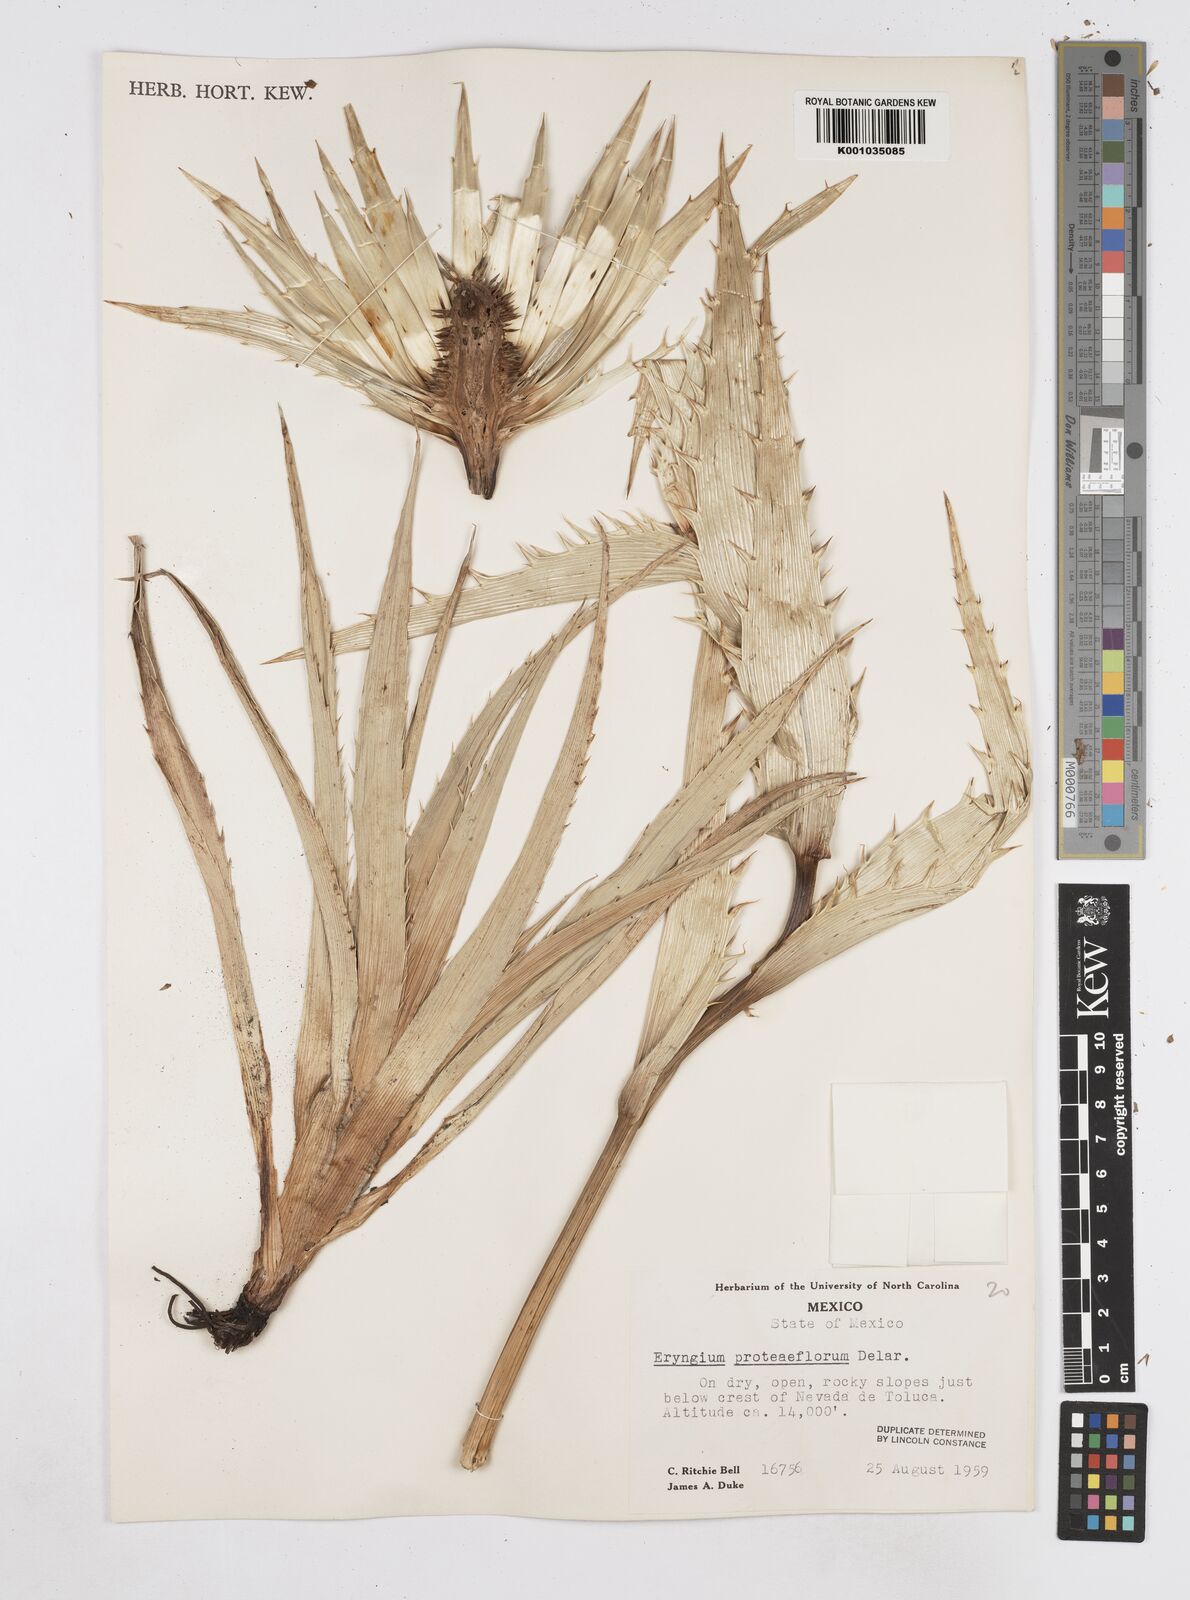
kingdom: Plantae
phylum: Tracheophyta
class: Magnoliopsida
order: Apiales
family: Apiaceae
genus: Eryngium
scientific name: Eryngium proteiflorum
